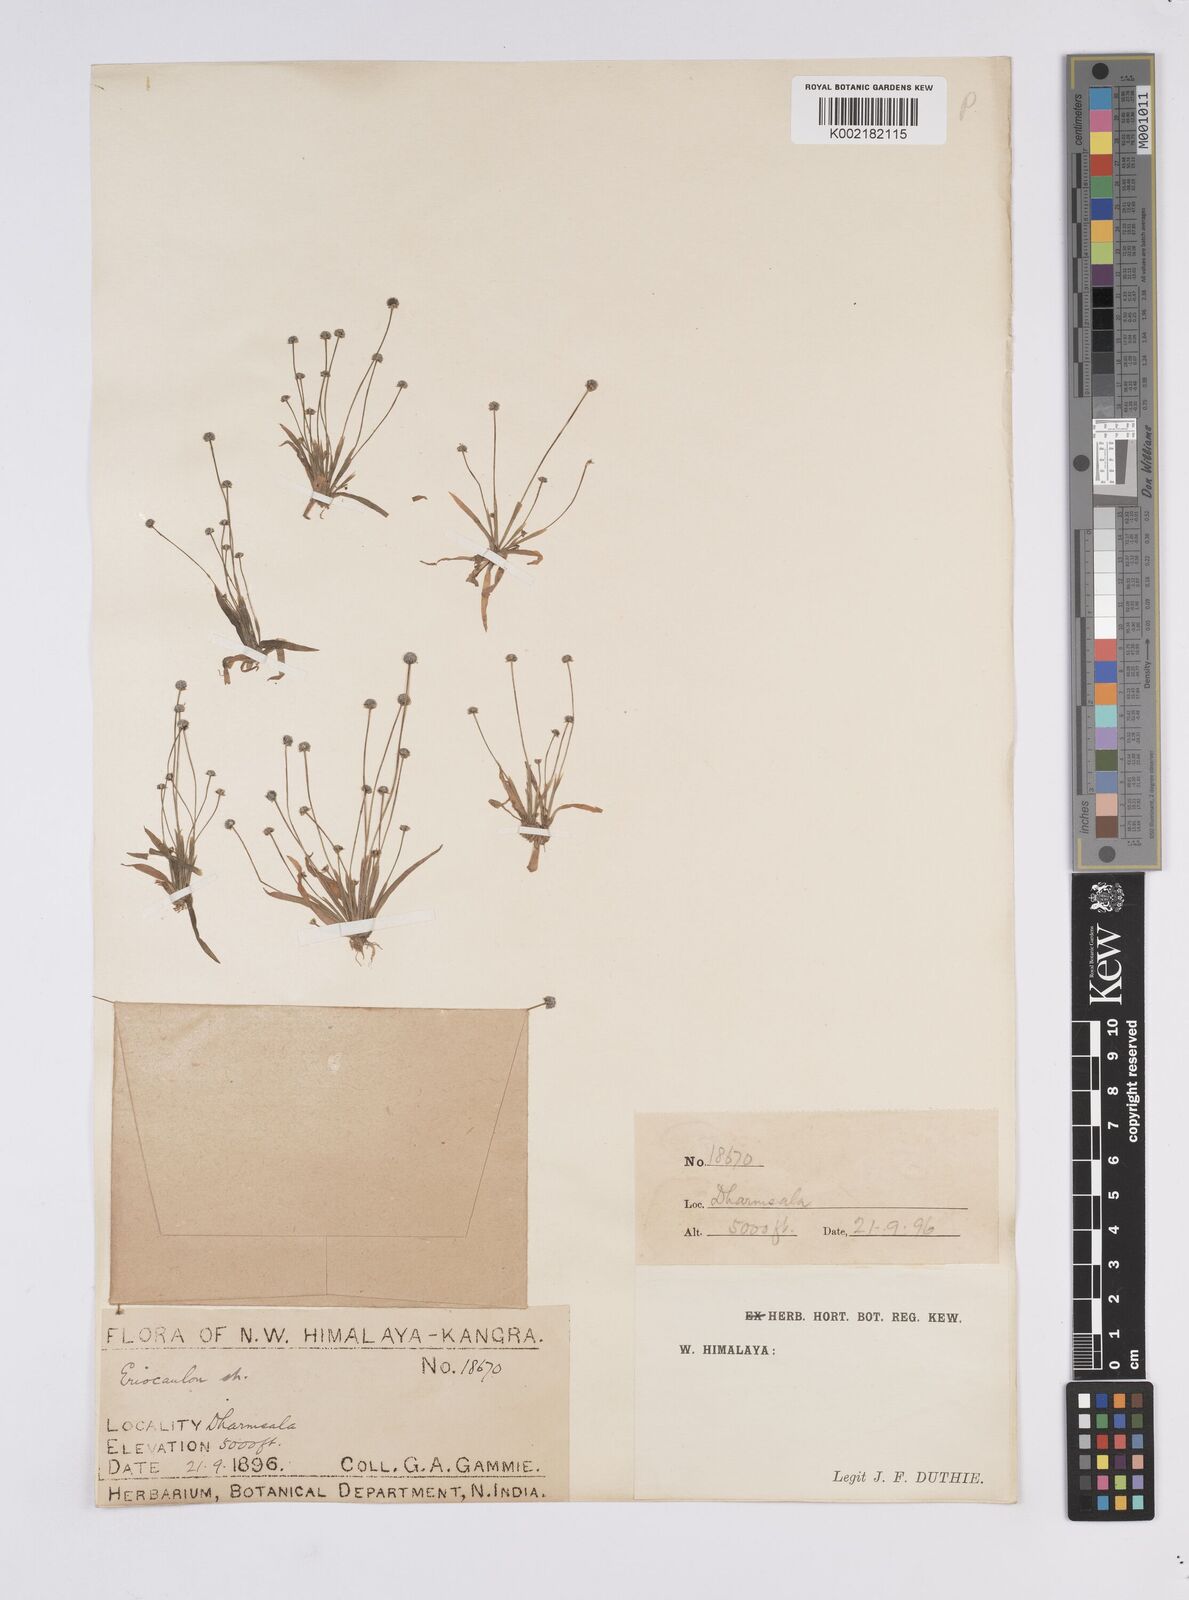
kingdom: Plantae
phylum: Tracheophyta
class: Liliopsida
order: Poales
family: Eriocaulaceae
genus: Eriocaulon
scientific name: Eriocaulon
